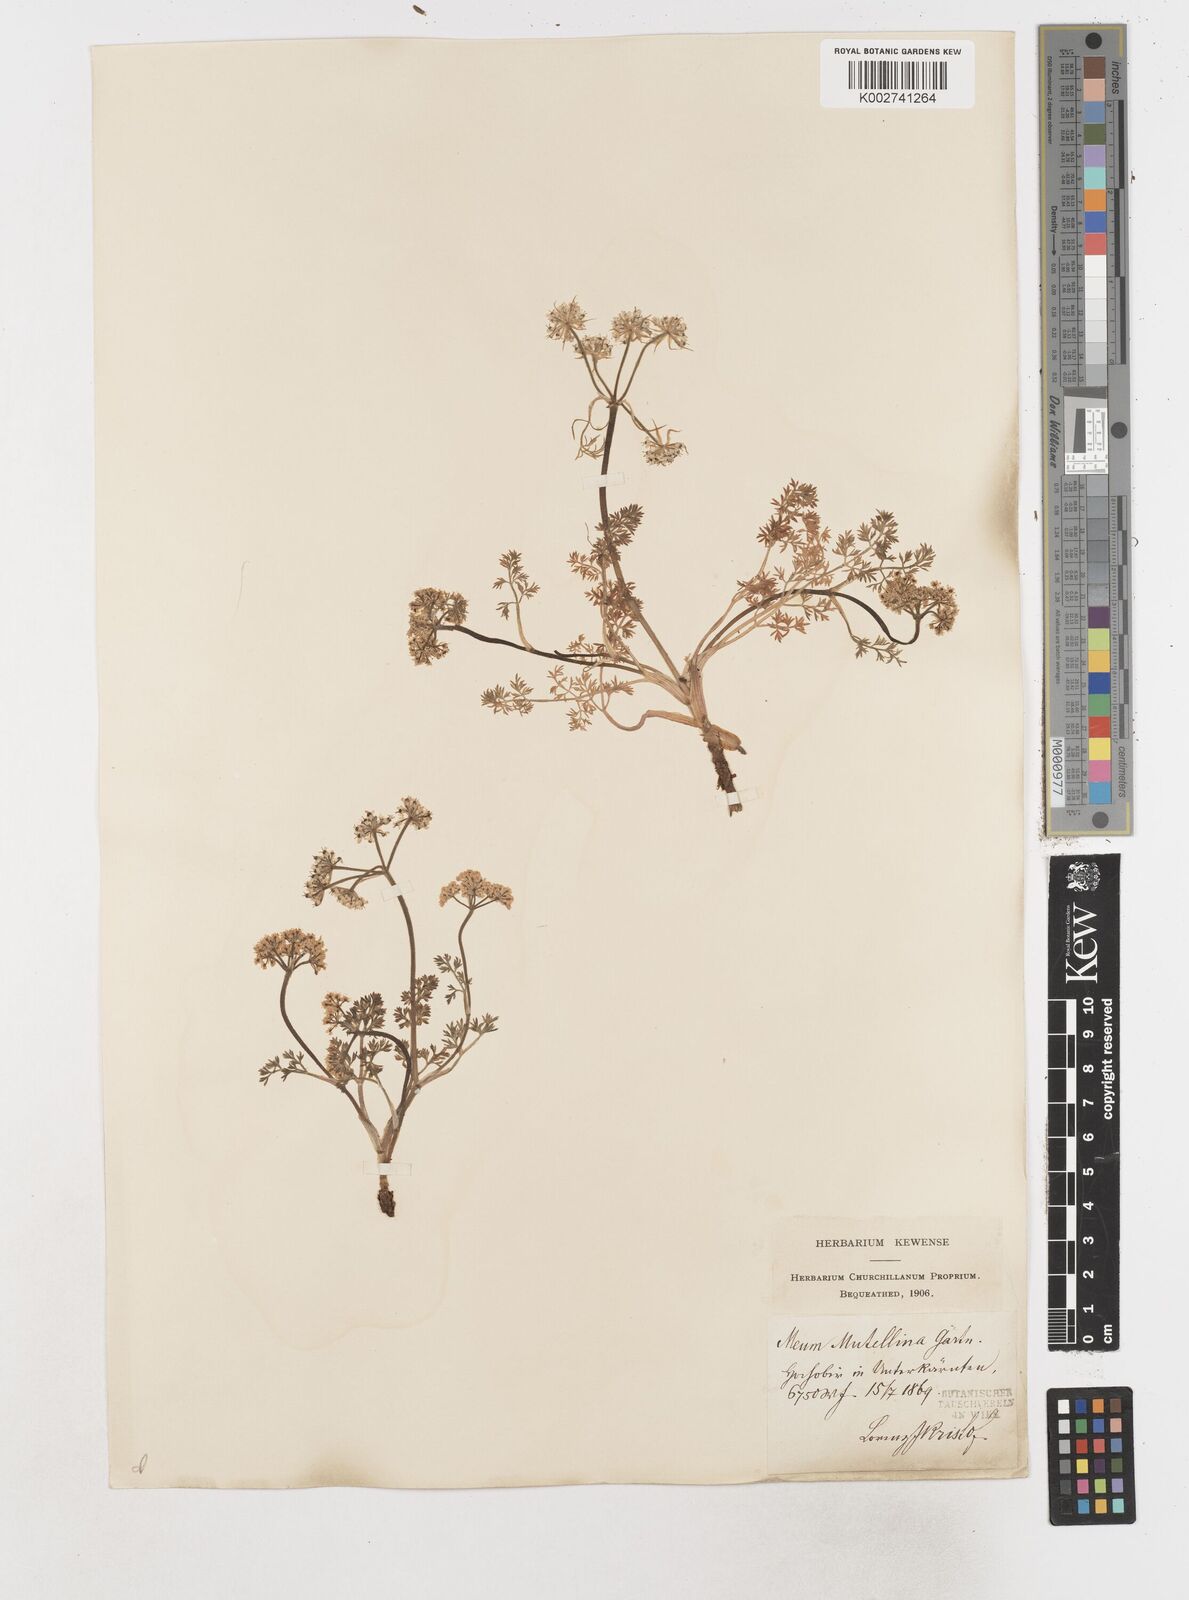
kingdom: Plantae
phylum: Tracheophyta
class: Magnoliopsida
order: Apiales
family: Apiaceae
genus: Mutellina
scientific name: Mutellina adonidifolia
